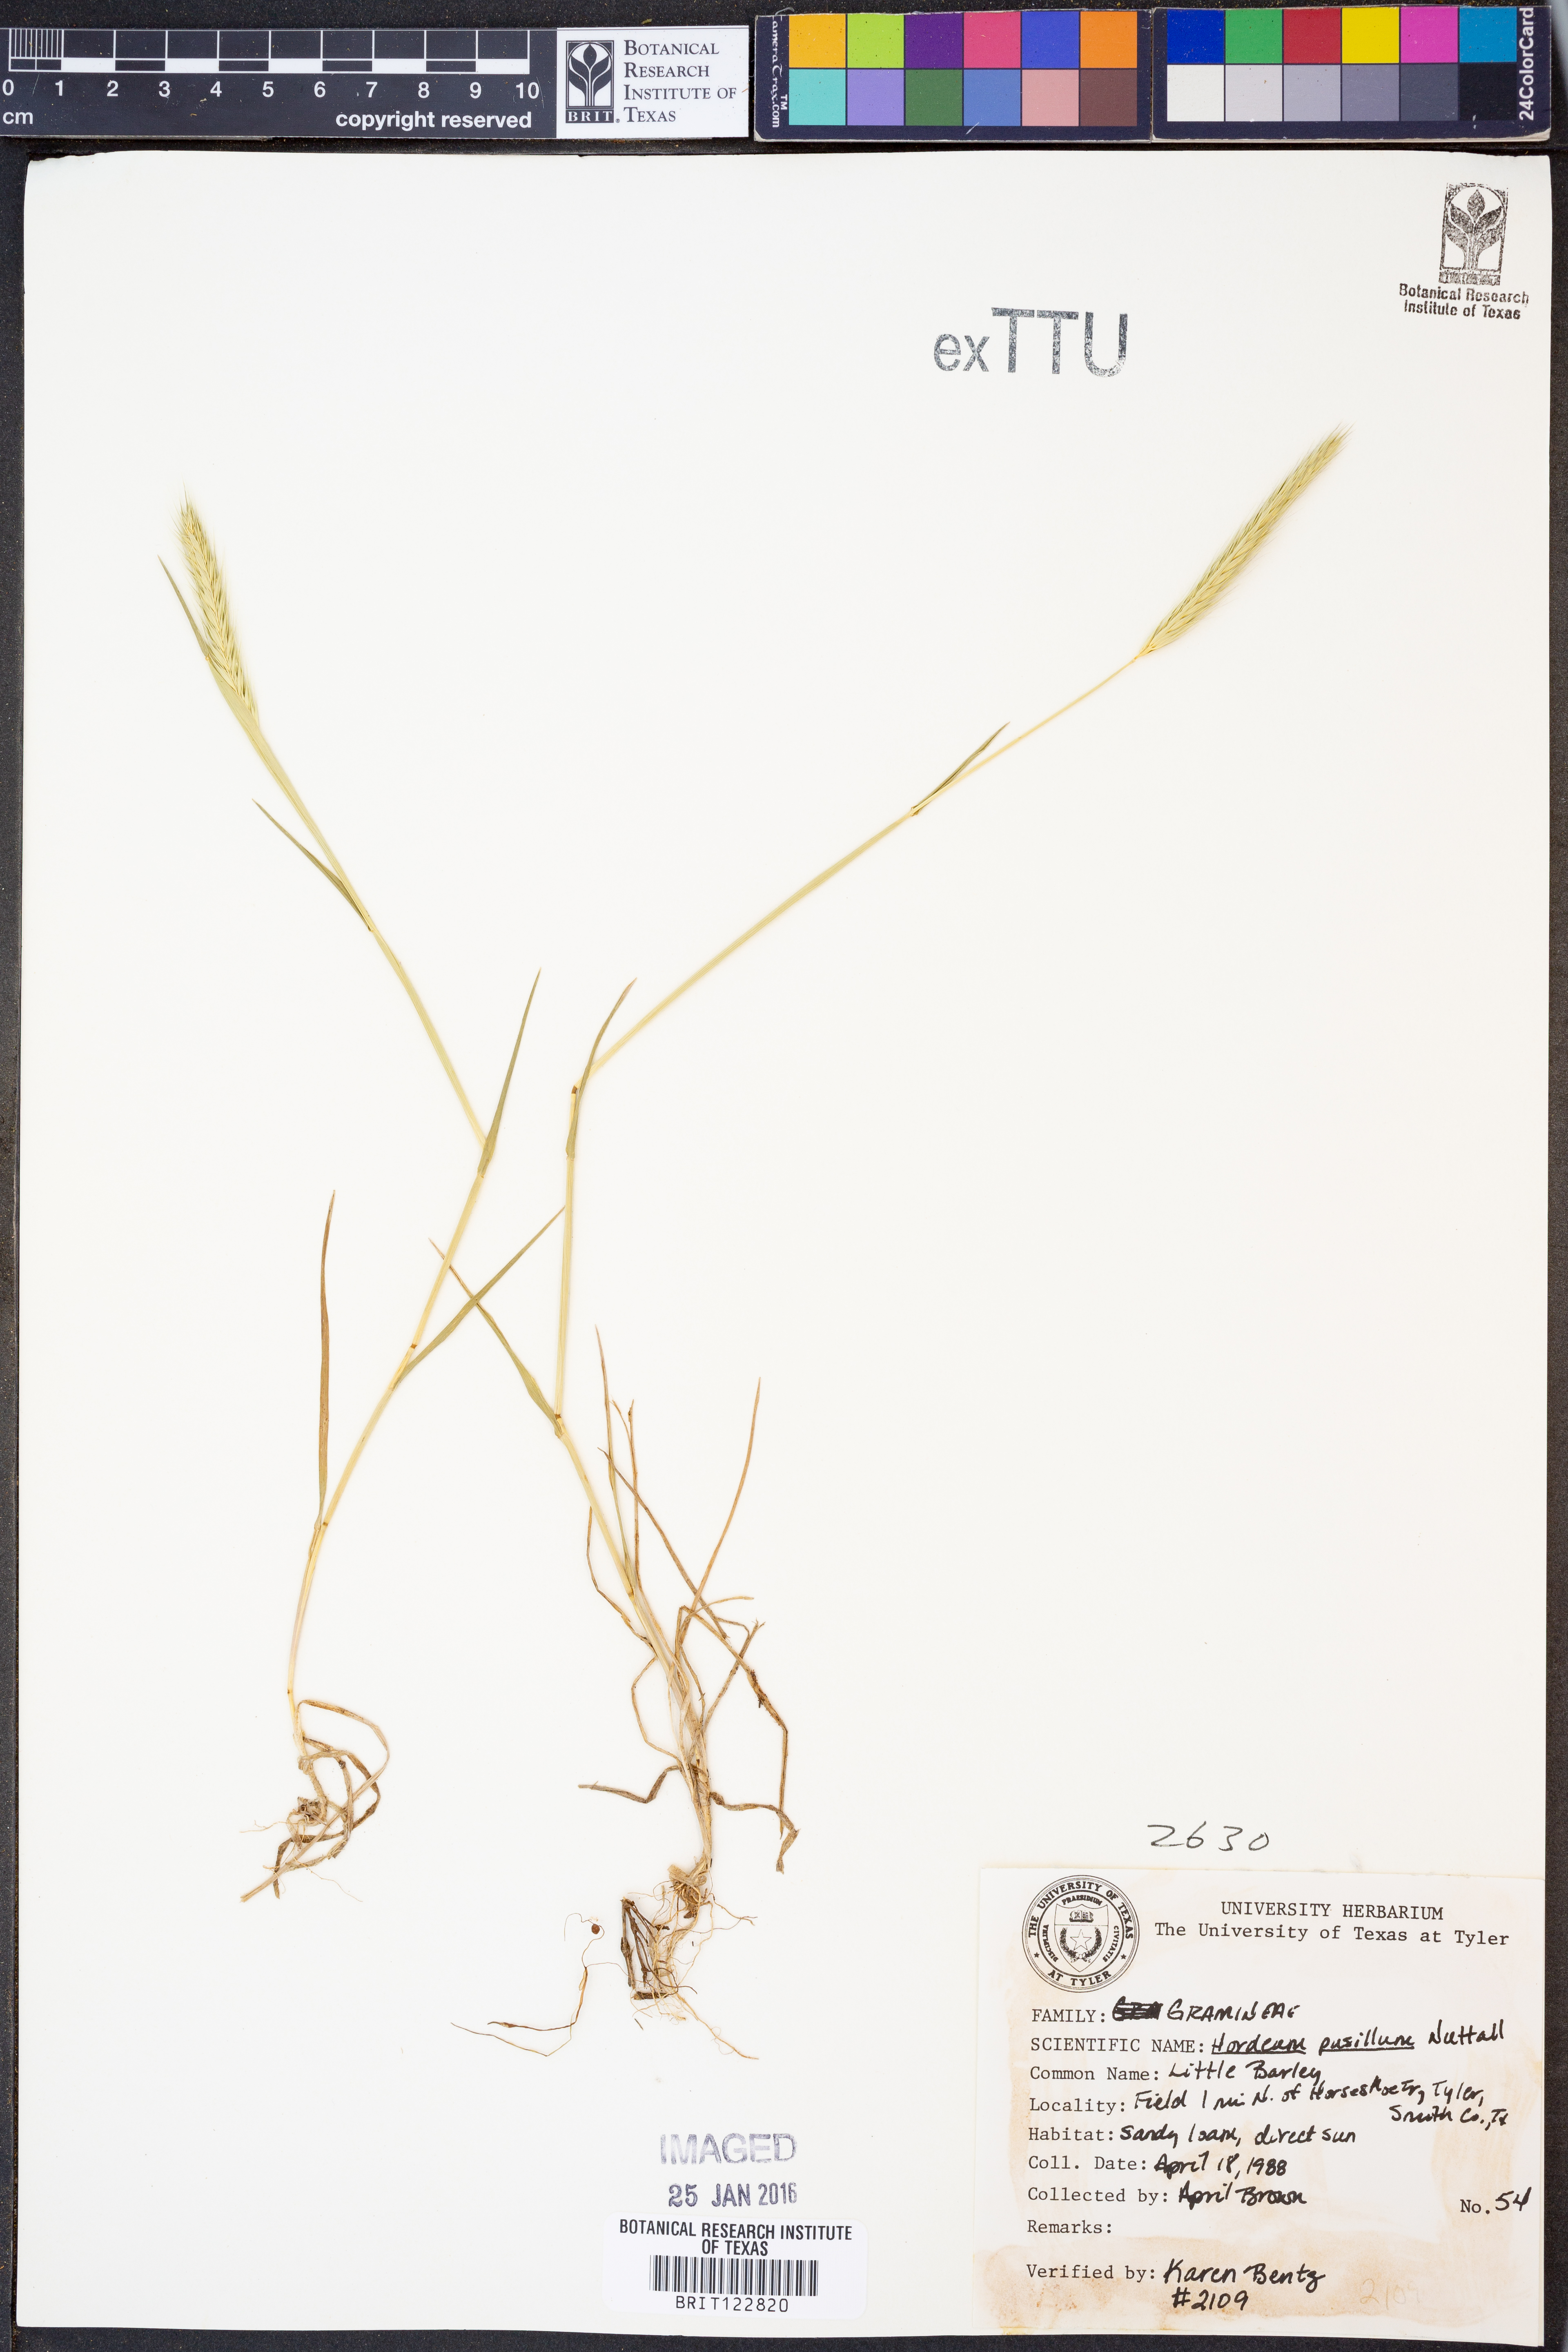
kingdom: Plantae
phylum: Tracheophyta
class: Liliopsida
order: Poales
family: Poaceae
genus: Hordeum
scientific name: Hordeum pusillum
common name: Little barley
